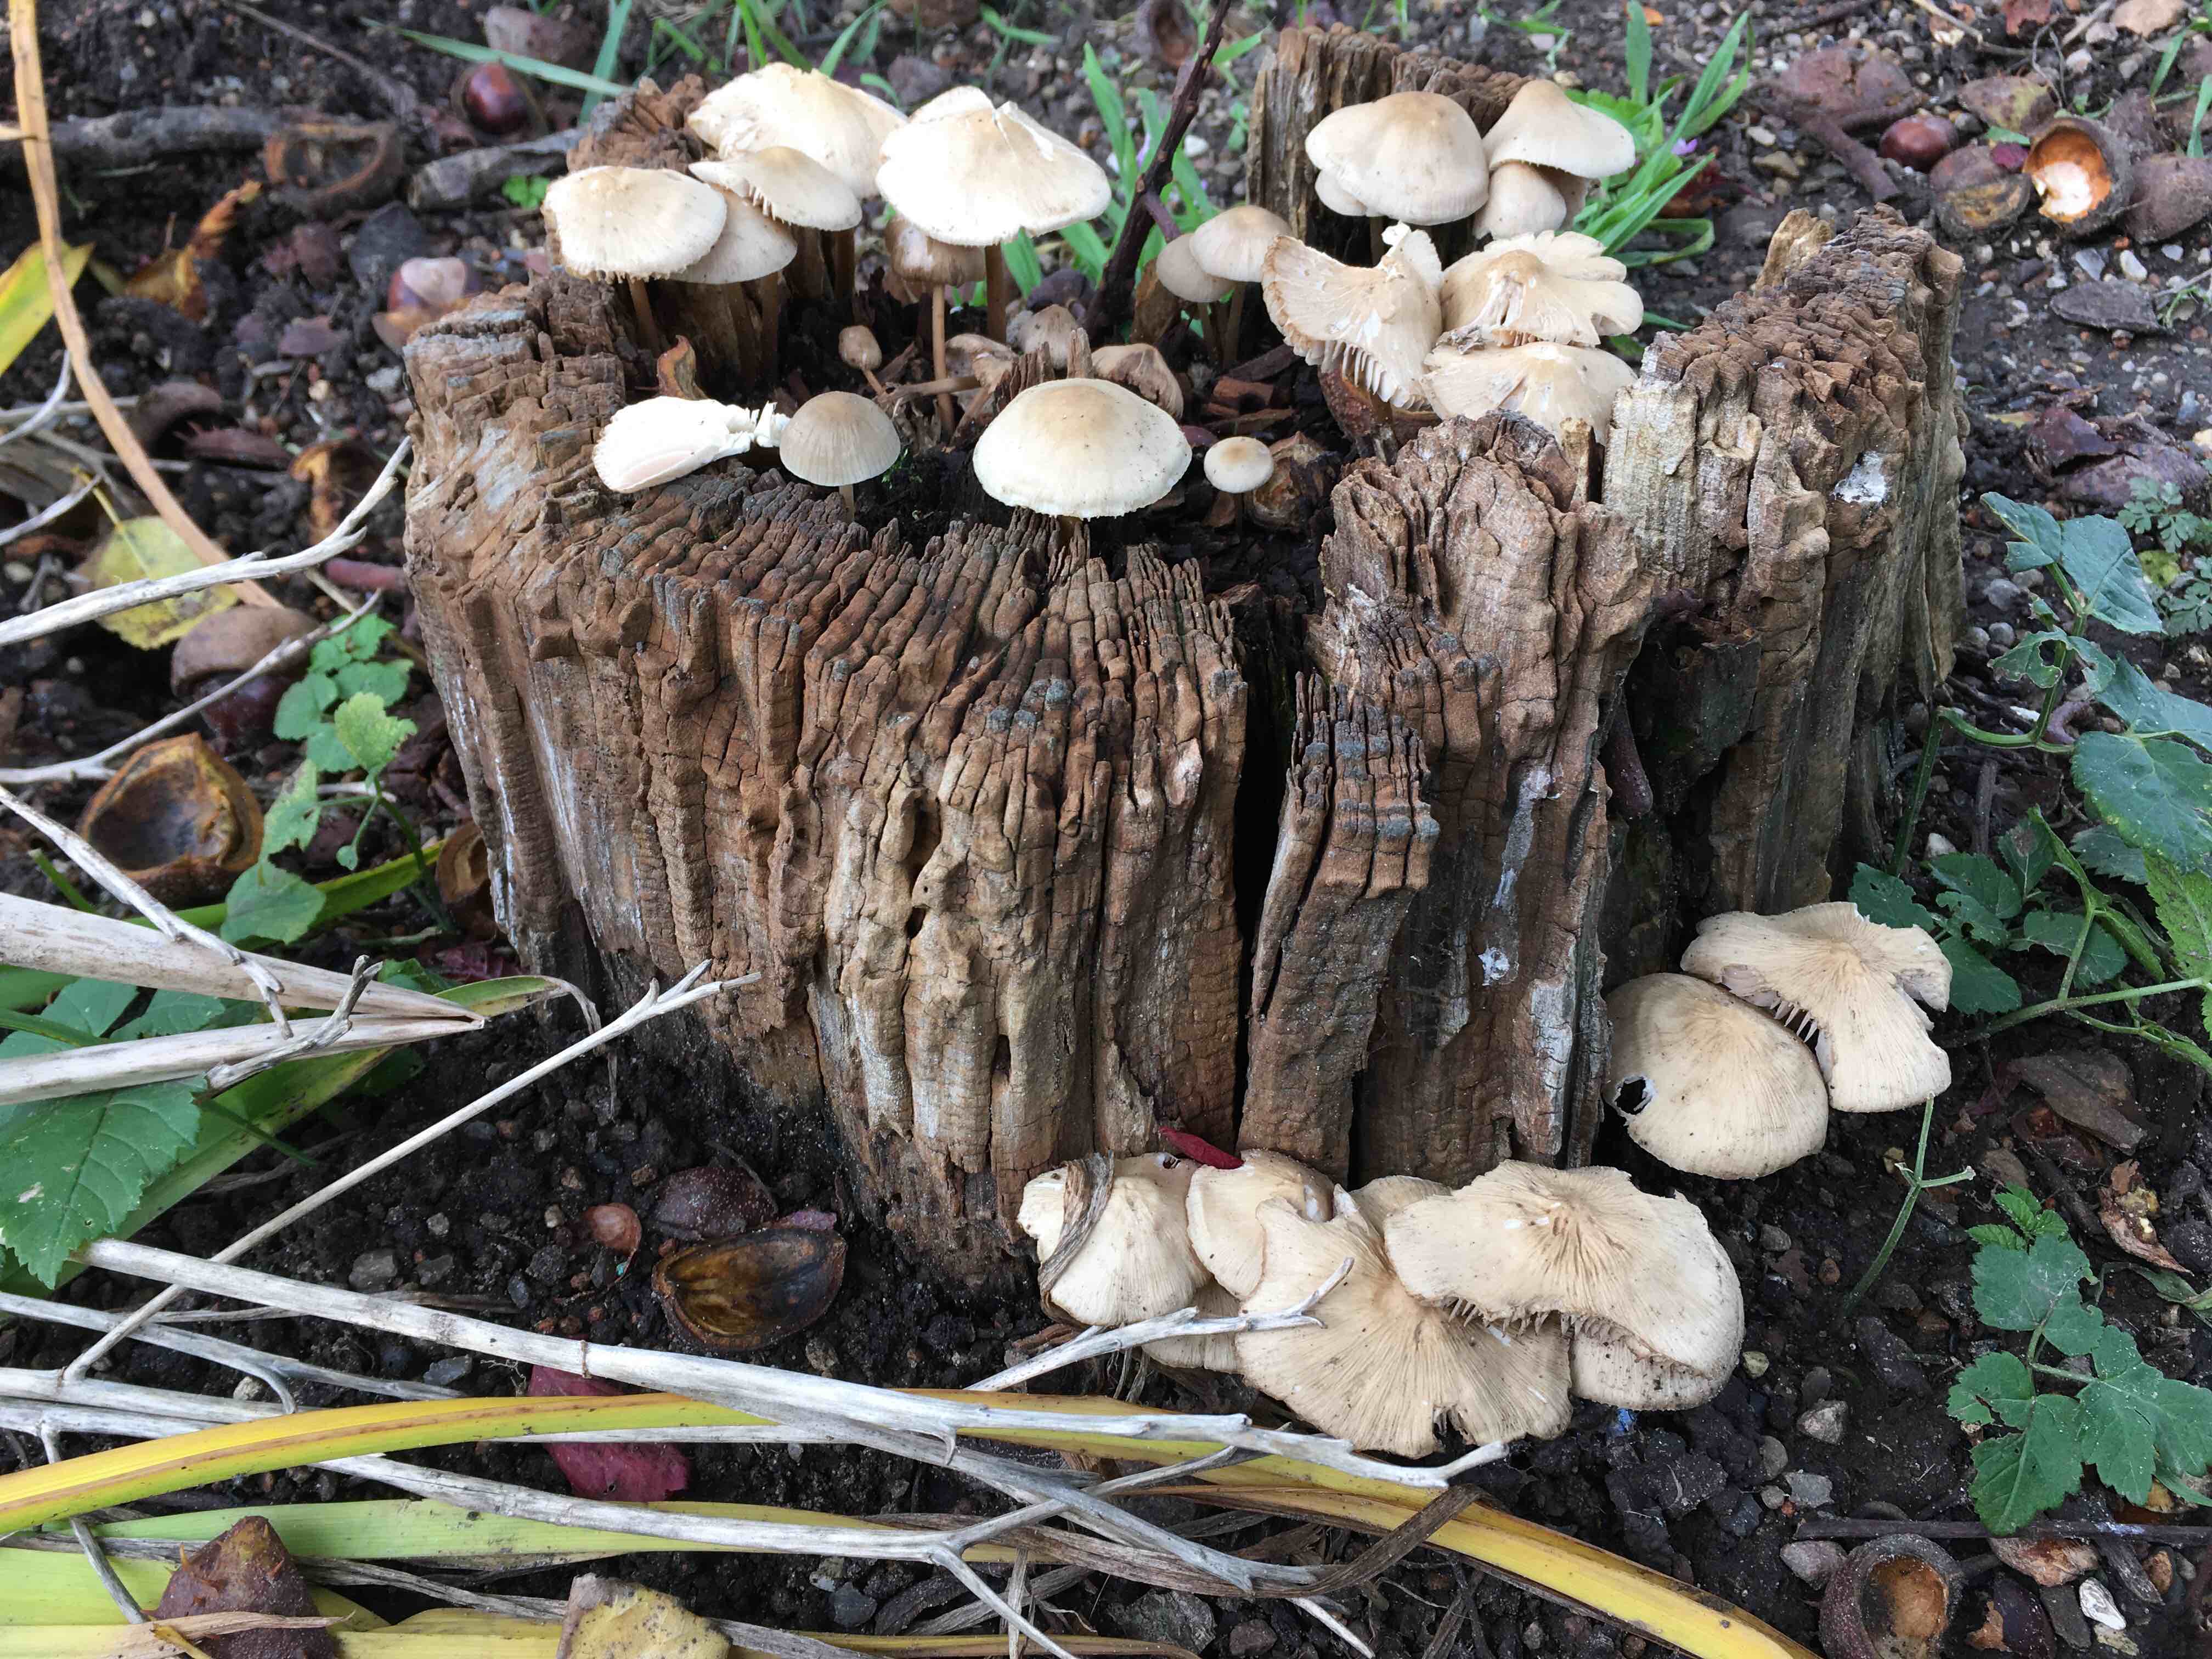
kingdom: Fungi
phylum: Basidiomycota
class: Agaricomycetes
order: Agaricales
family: Mycenaceae
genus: Mycena
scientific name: Mycena galericulata
